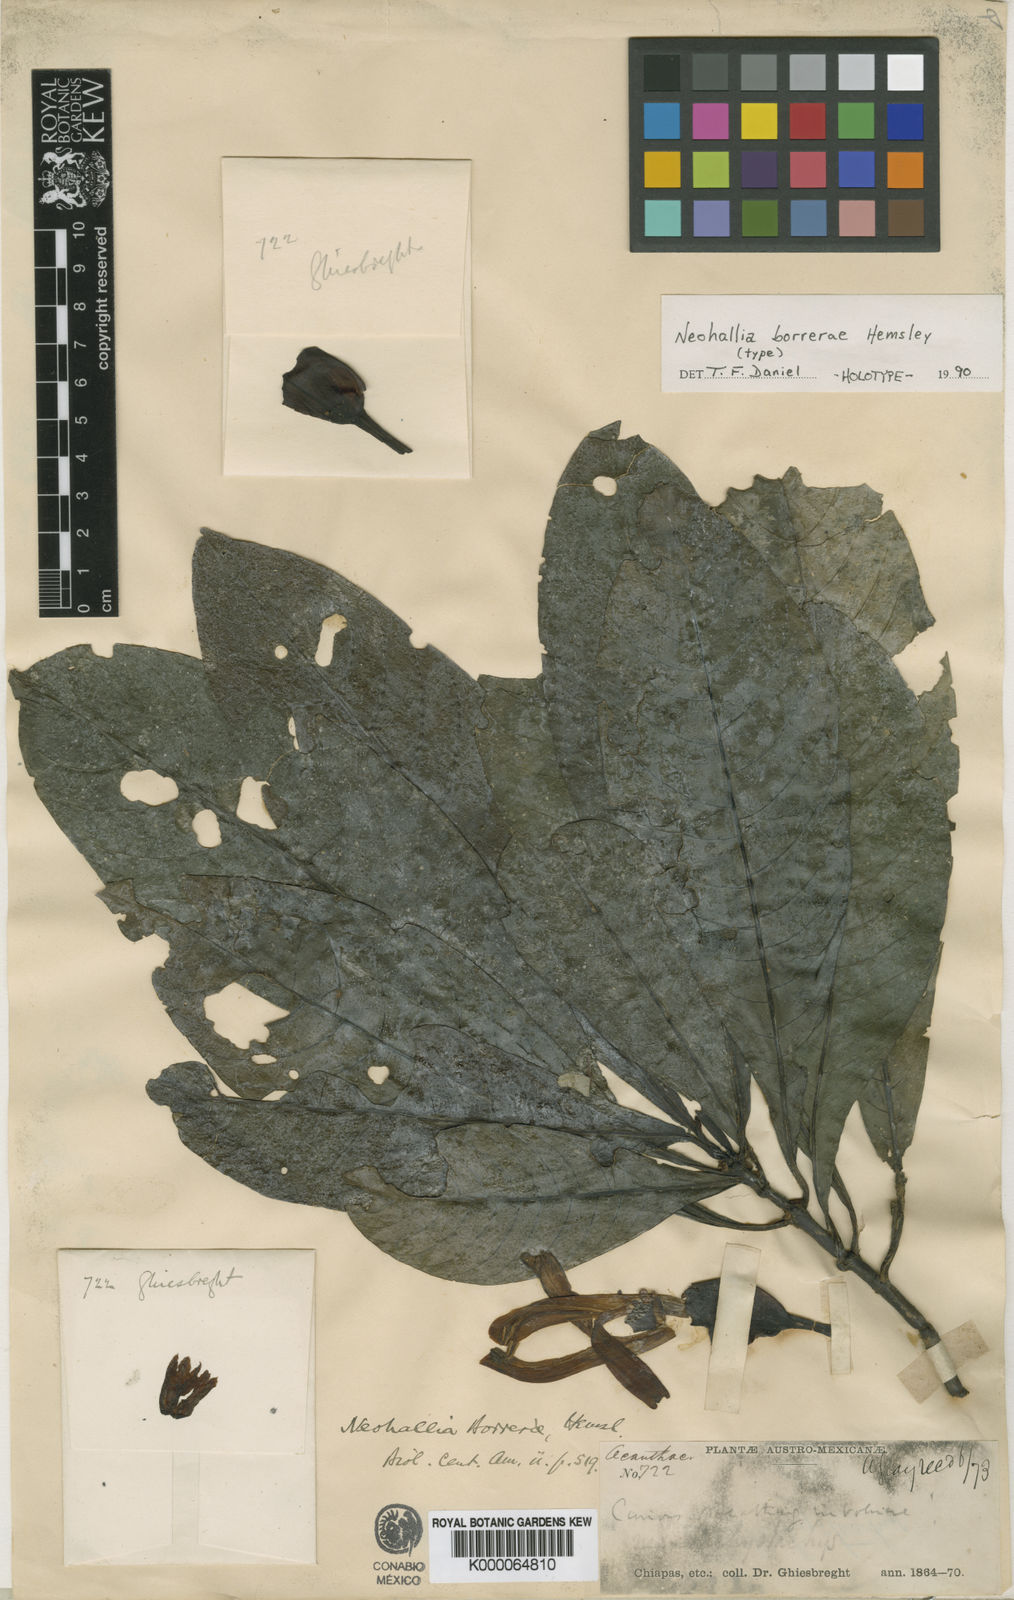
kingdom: Plantae
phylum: Tracheophyta
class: Magnoliopsida
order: Lamiales
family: Acanthaceae
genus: Justicia
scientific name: Justicia borrerae
